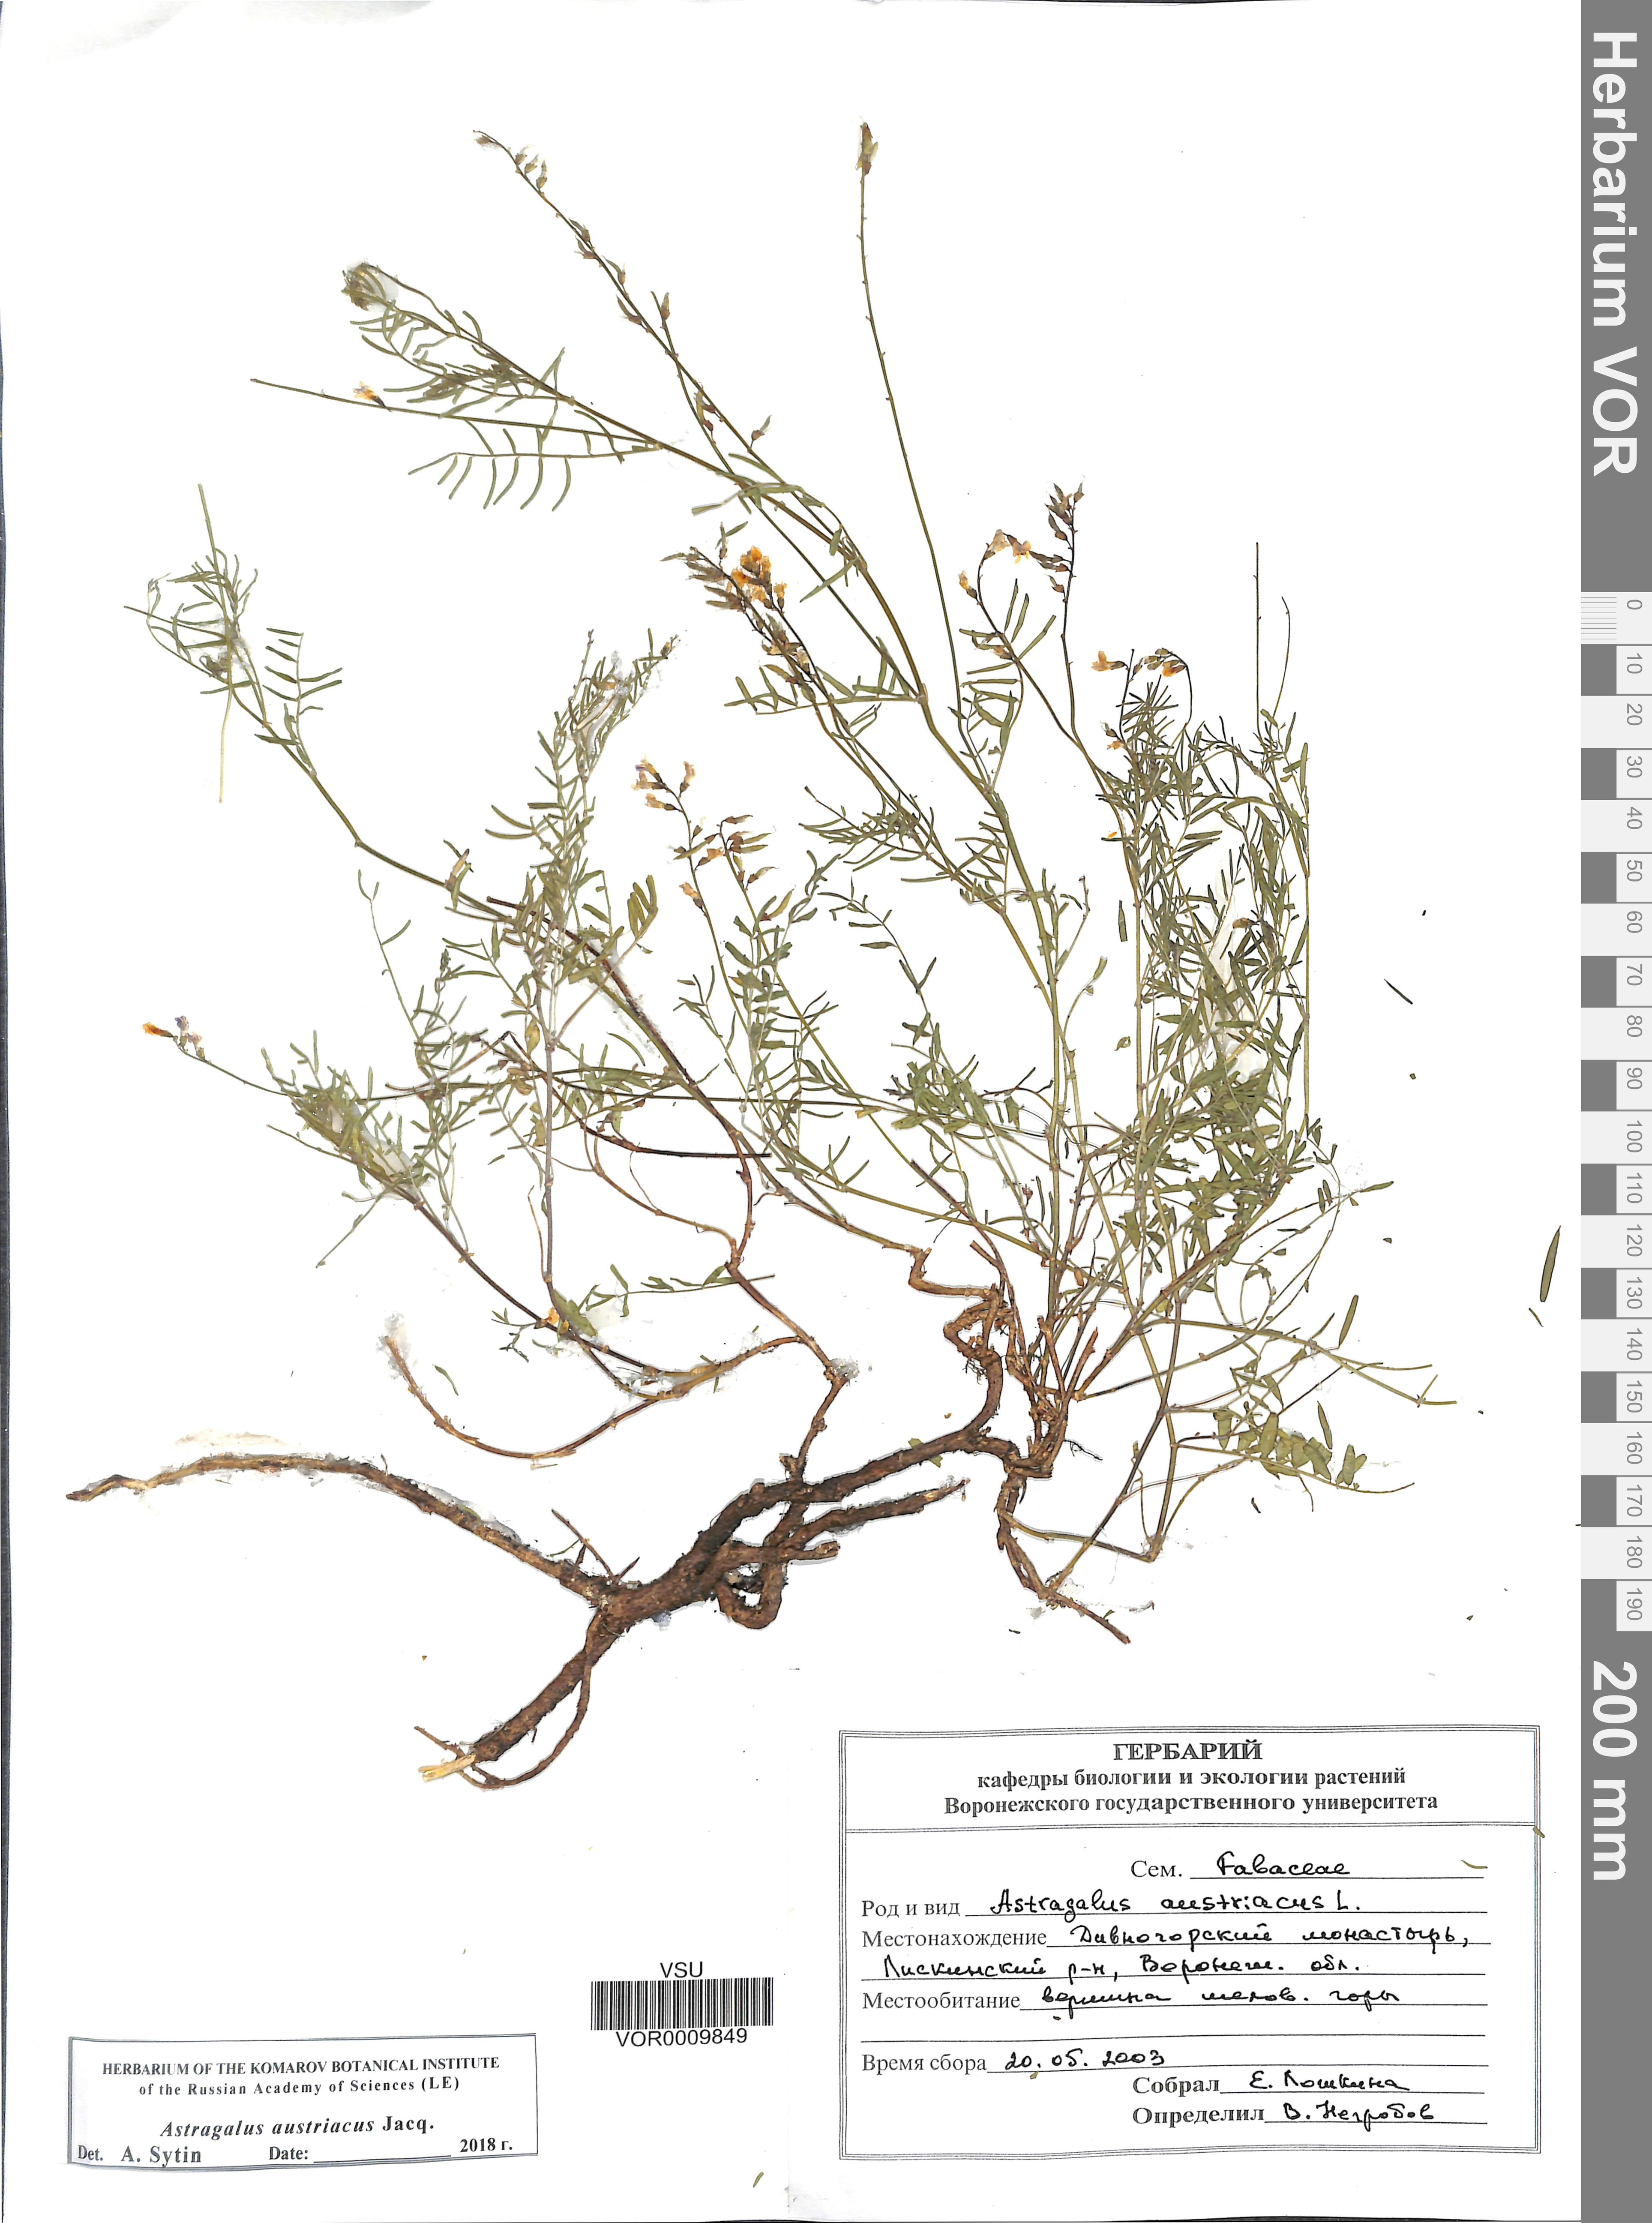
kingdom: Plantae
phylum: Tracheophyta
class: Magnoliopsida
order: Fabales
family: Fabaceae
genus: Astragalus
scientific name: Astragalus austriacus
